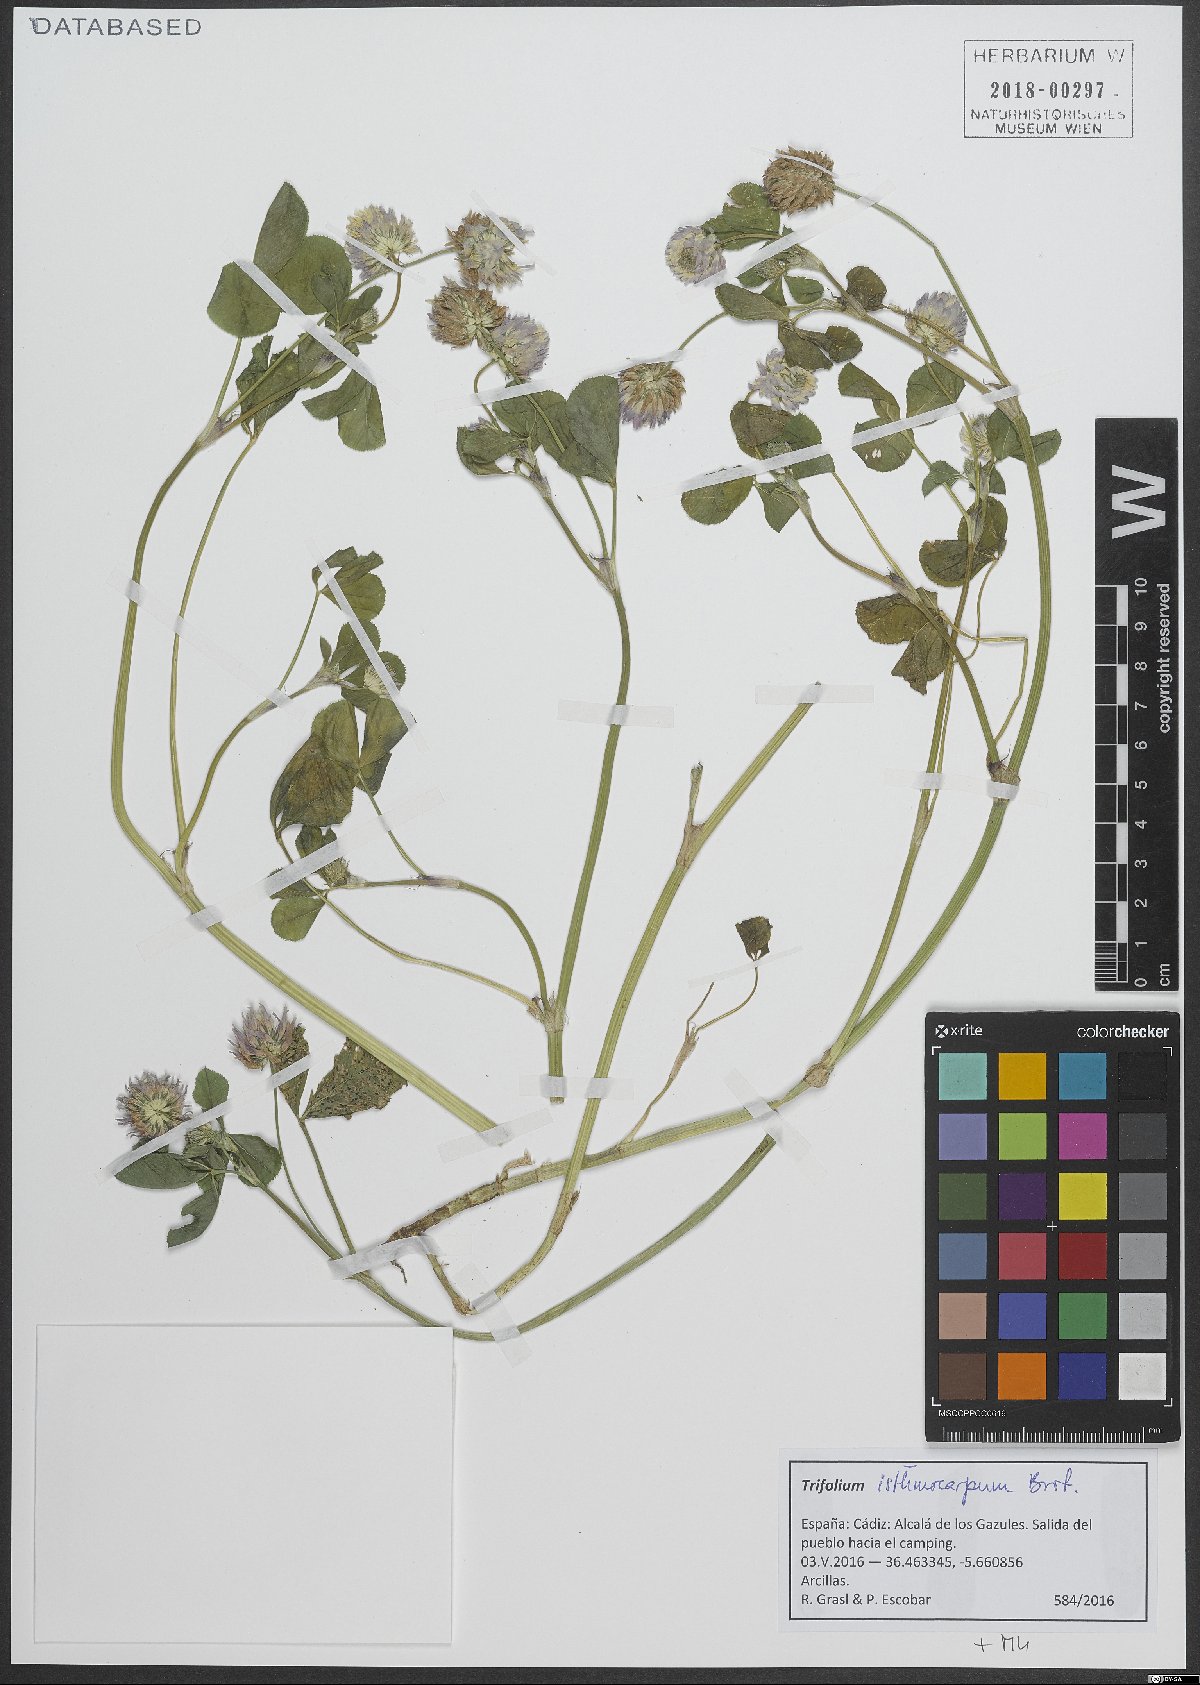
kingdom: Plantae
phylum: Tracheophyta
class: Magnoliopsida
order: Fabales
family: Fabaceae
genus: Trifolium
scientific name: Trifolium isthmocarpum
